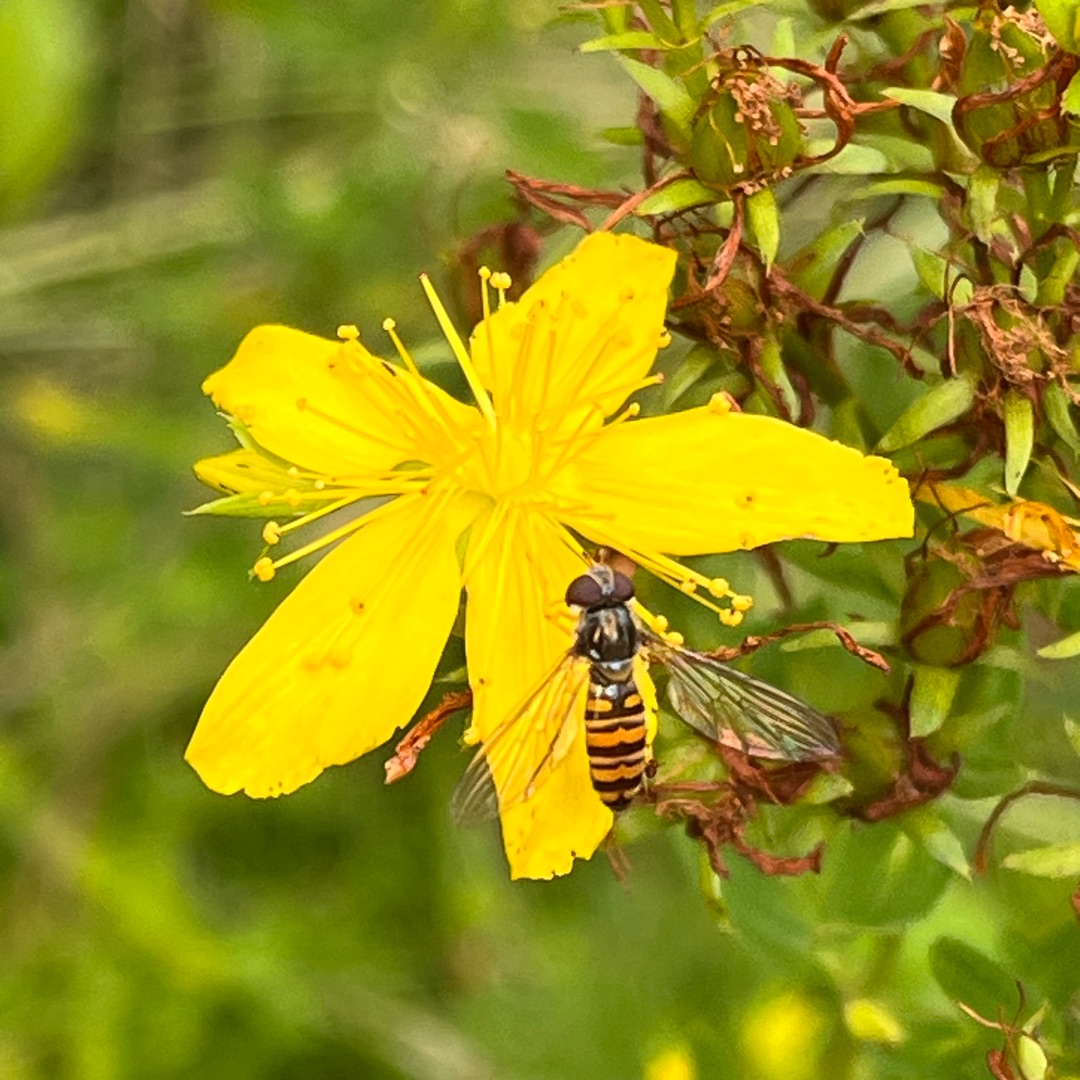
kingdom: Animalia
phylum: Arthropoda
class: Insecta
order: Diptera
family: Syrphidae
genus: Episyrphus
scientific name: Episyrphus balteatus
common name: Dobbeltbåndet svirreflue
